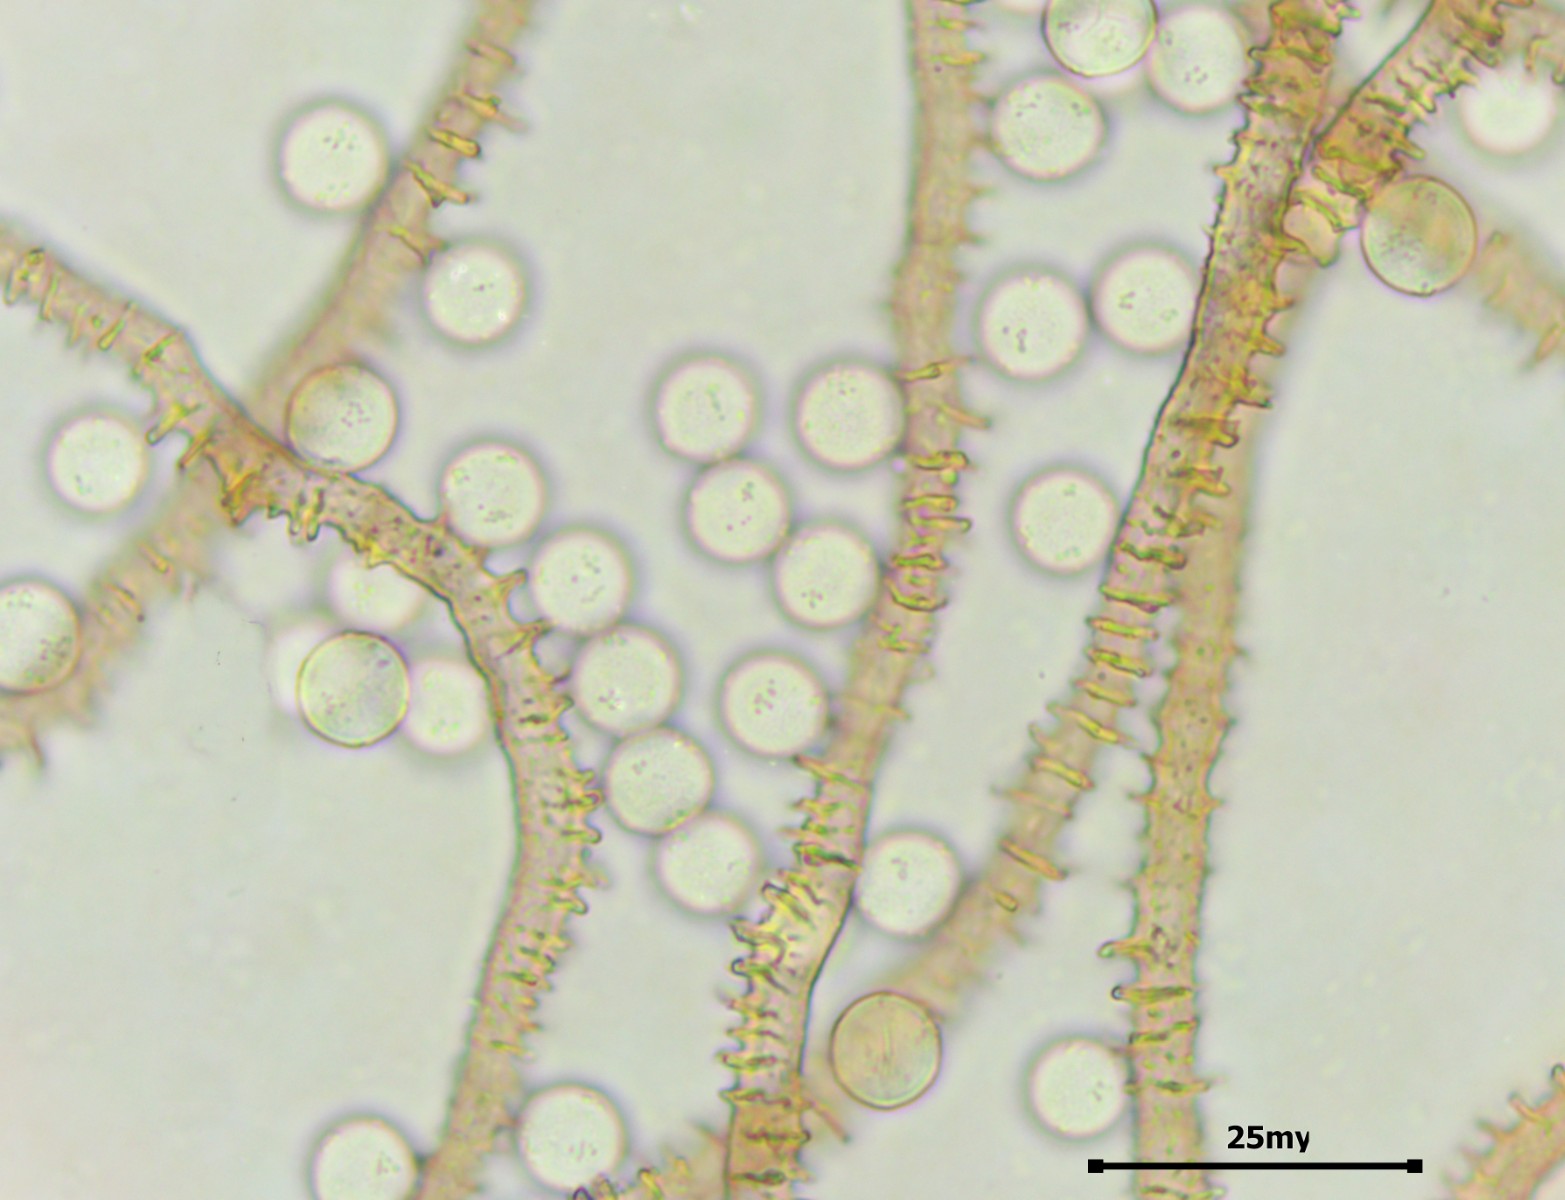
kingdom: Protozoa
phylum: Mycetozoa
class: Myxomycetes
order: Trichiales
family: Arcyriaceae
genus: Arcyria
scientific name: Arcyria incarnata
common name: rosa skålsvøb
